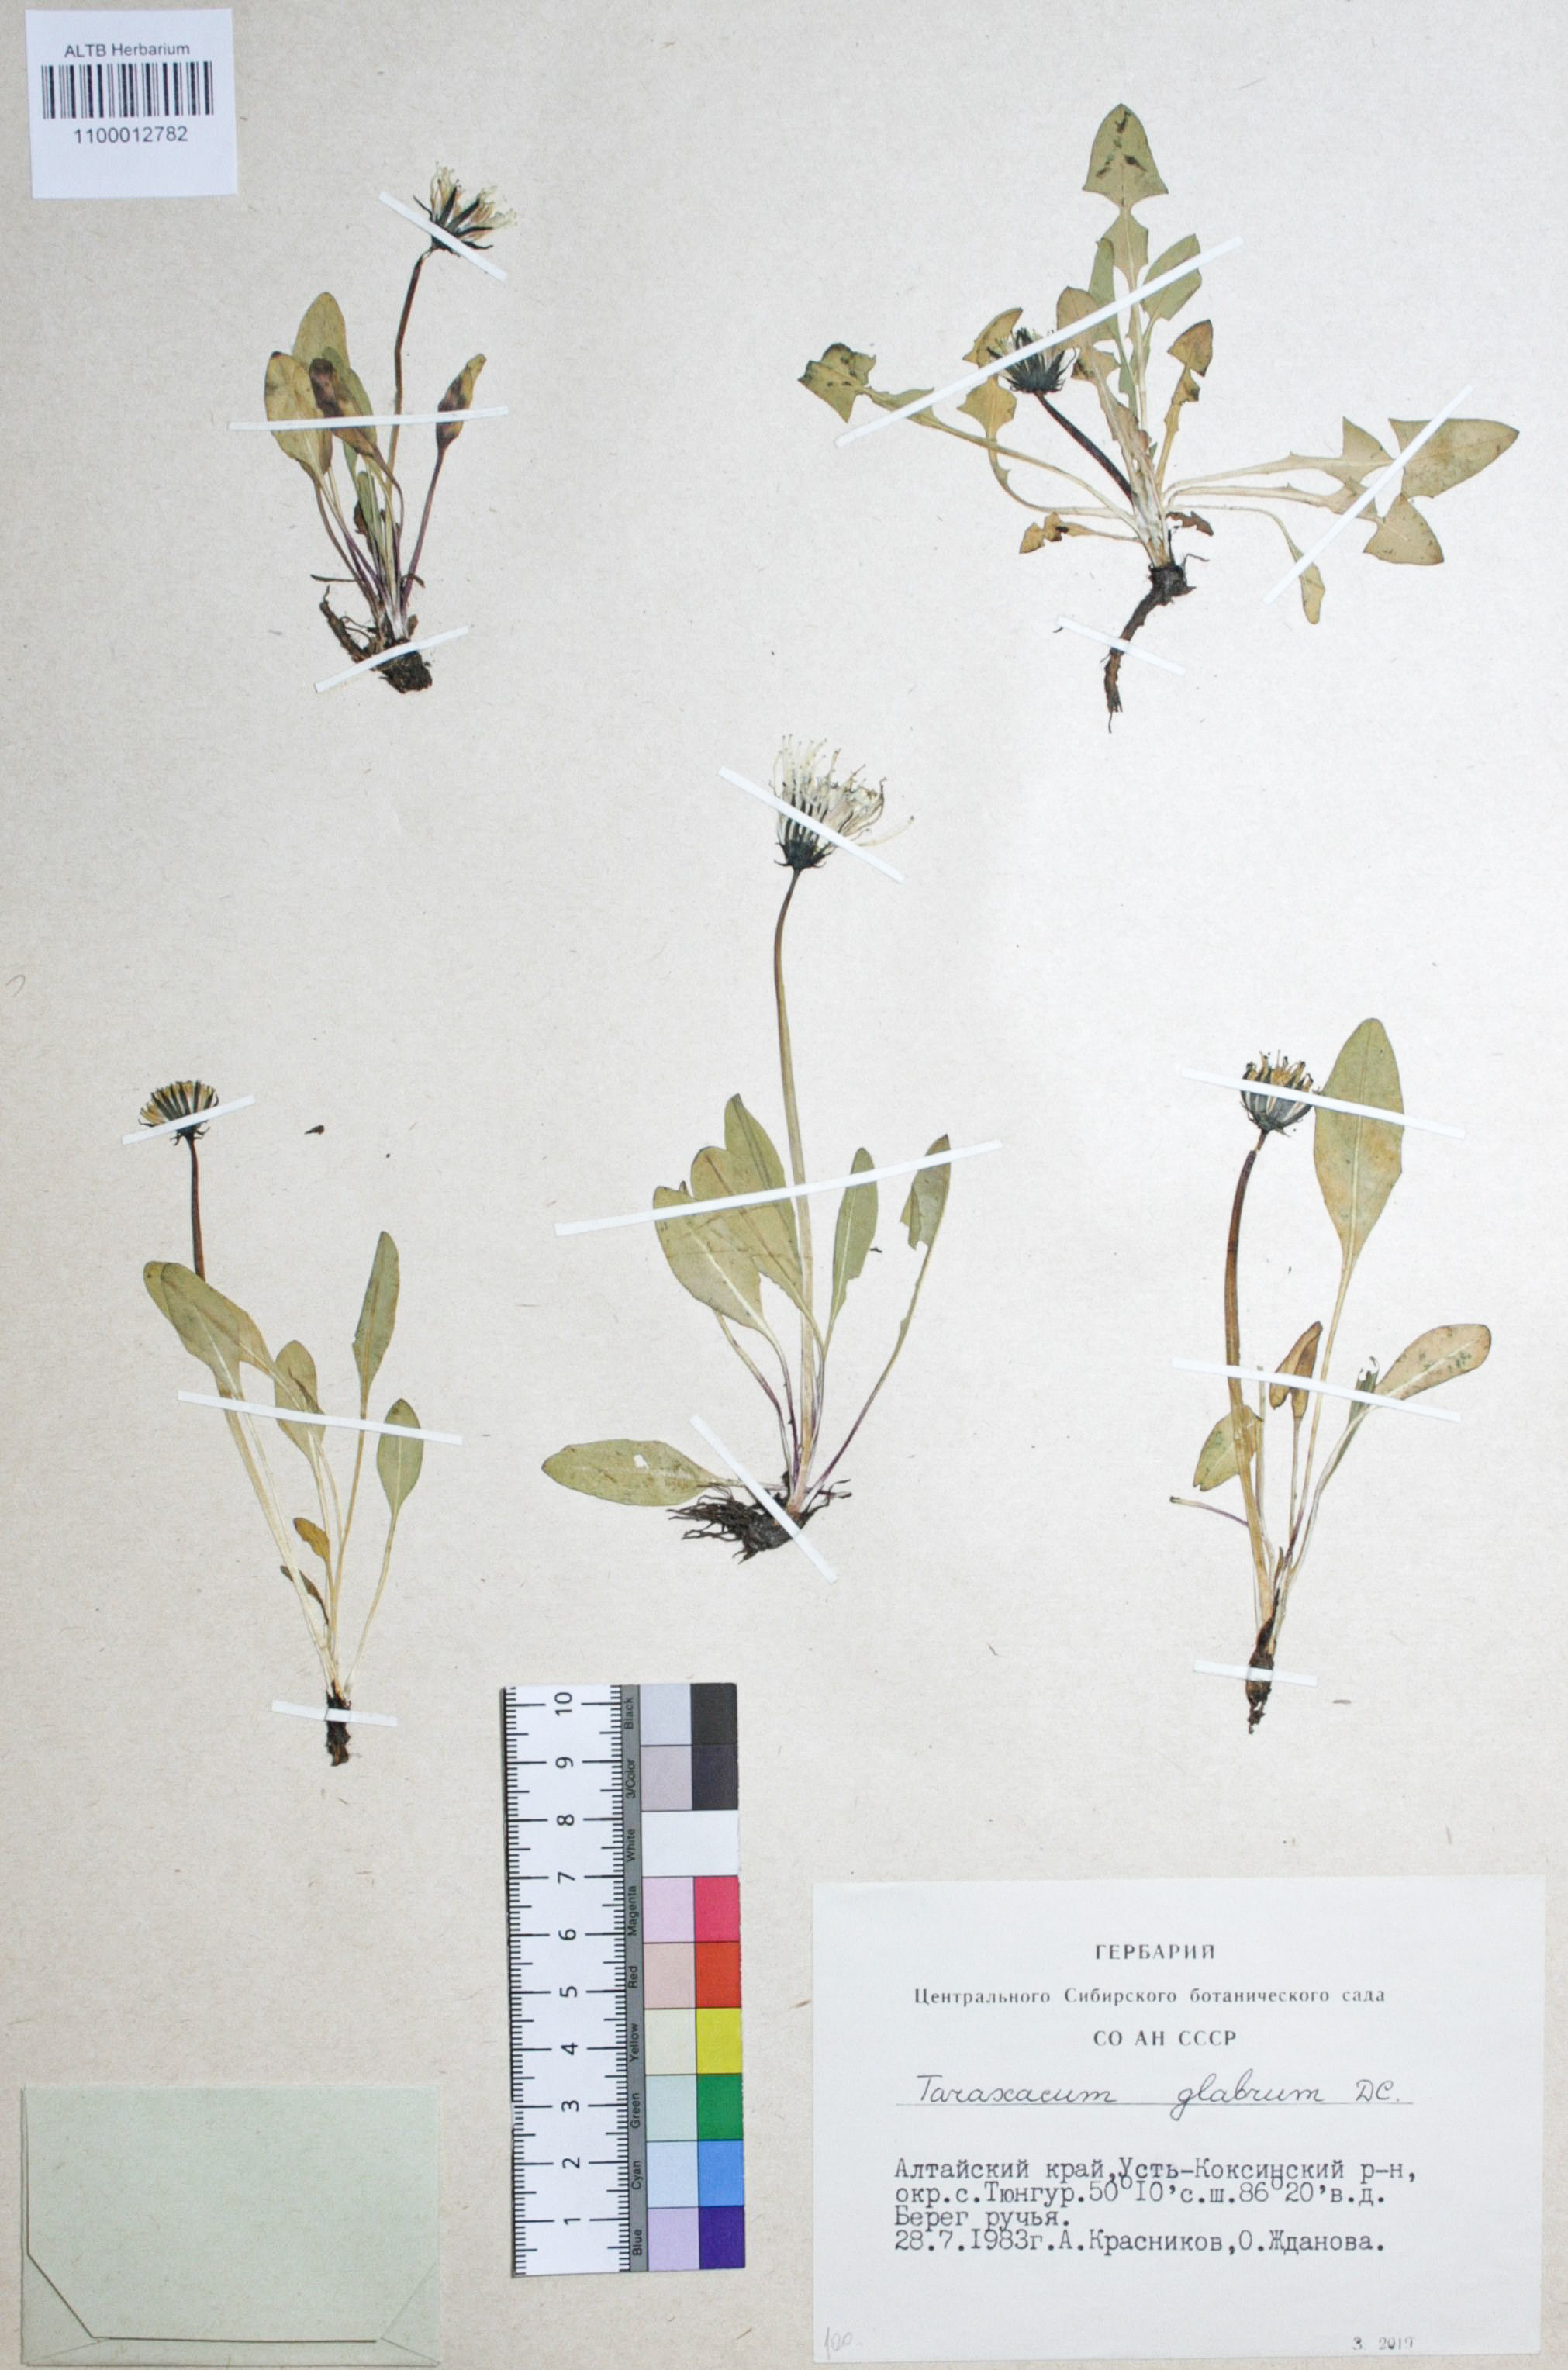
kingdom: Plantae
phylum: Tracheophyta
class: Magnoliopsida
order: Asterales
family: Asteraceae
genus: Taraxacum
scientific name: Taraxacum glabrum
